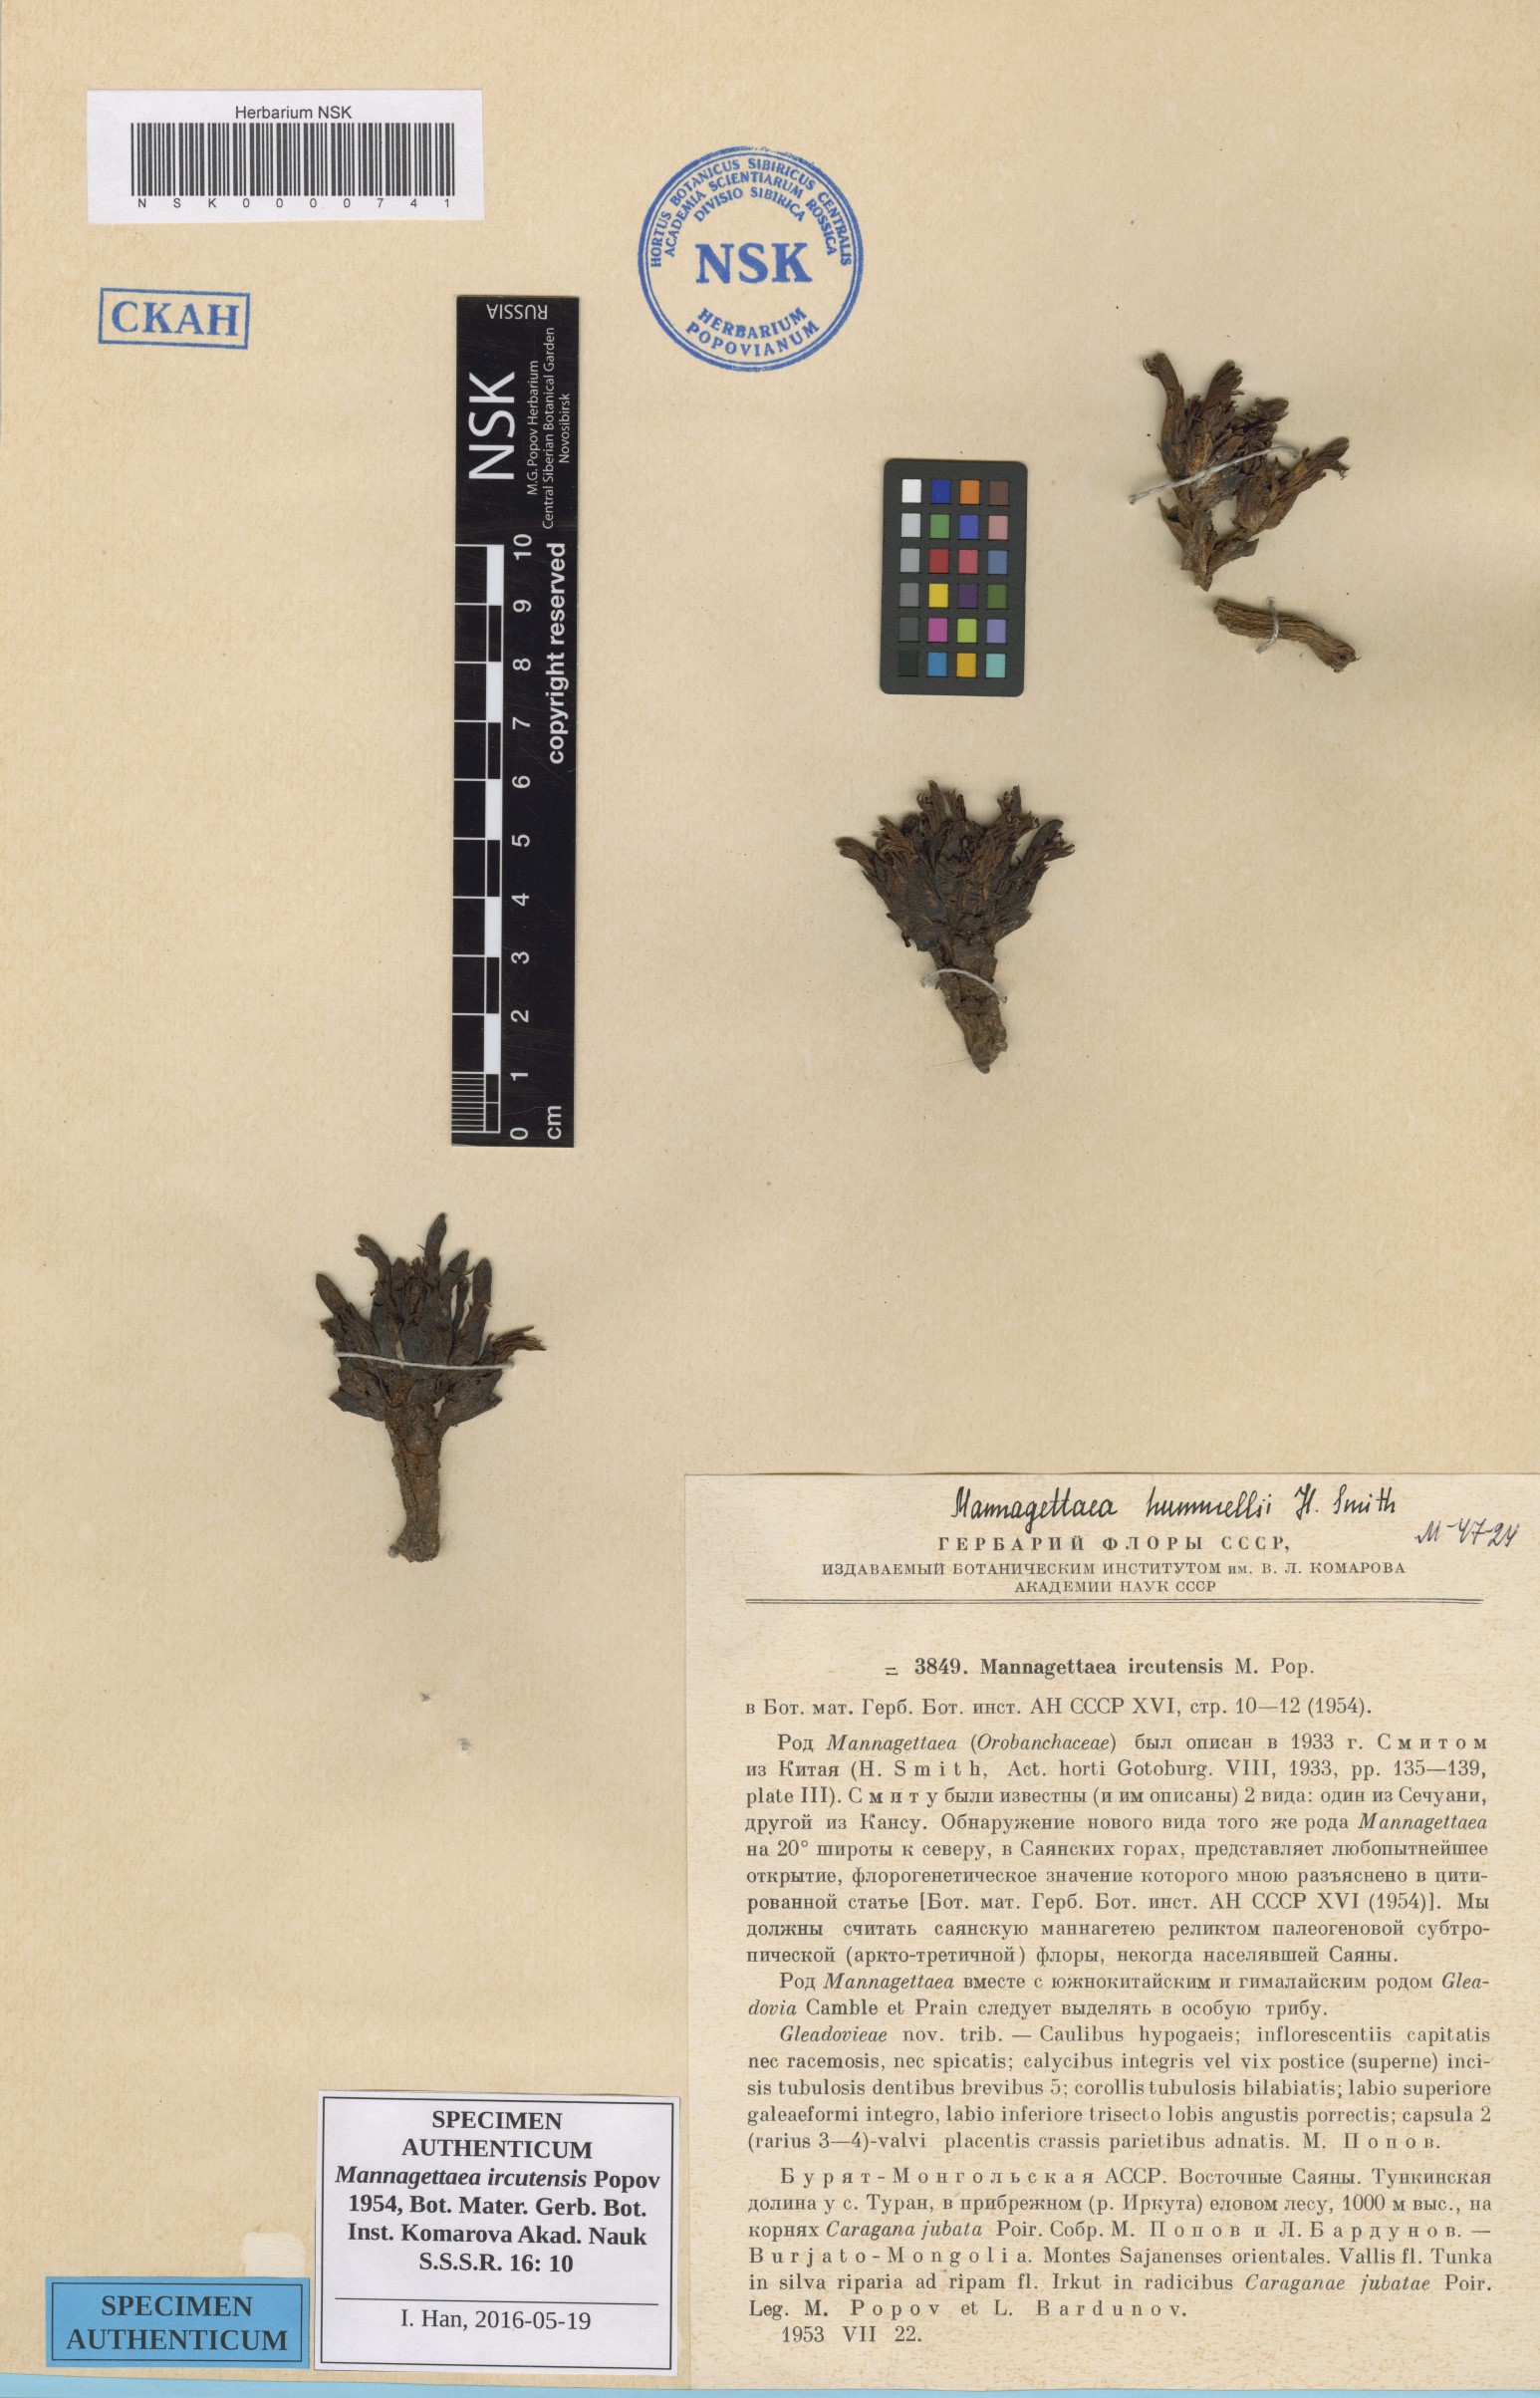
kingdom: Plantae
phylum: Tracheophyta
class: Magnoliopsida
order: Lamiales
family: Orobanchaceae
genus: Mannagettaea
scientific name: Mannagettaea hummelii
